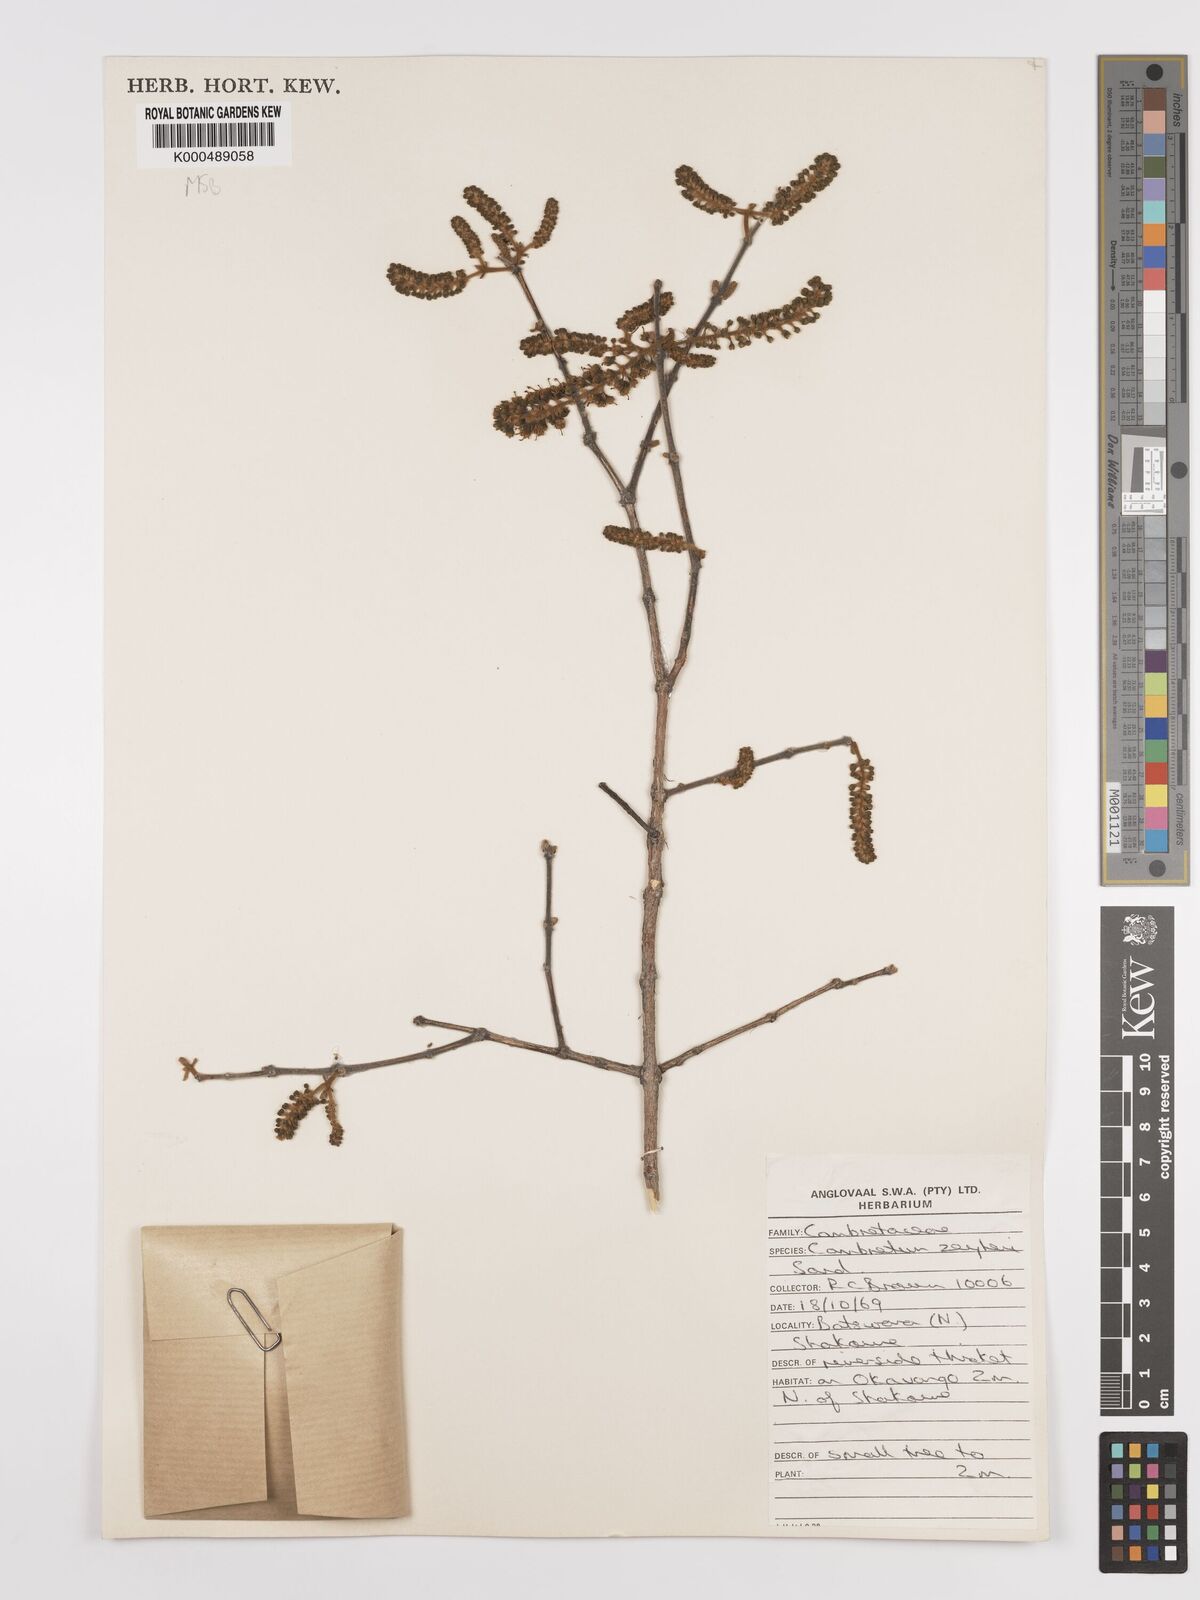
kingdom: Plantae
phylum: Tracheophyta
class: Magnoliopsida
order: Myrtales
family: Combretaceae
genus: Combretum
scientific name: Combretum zeyheri
